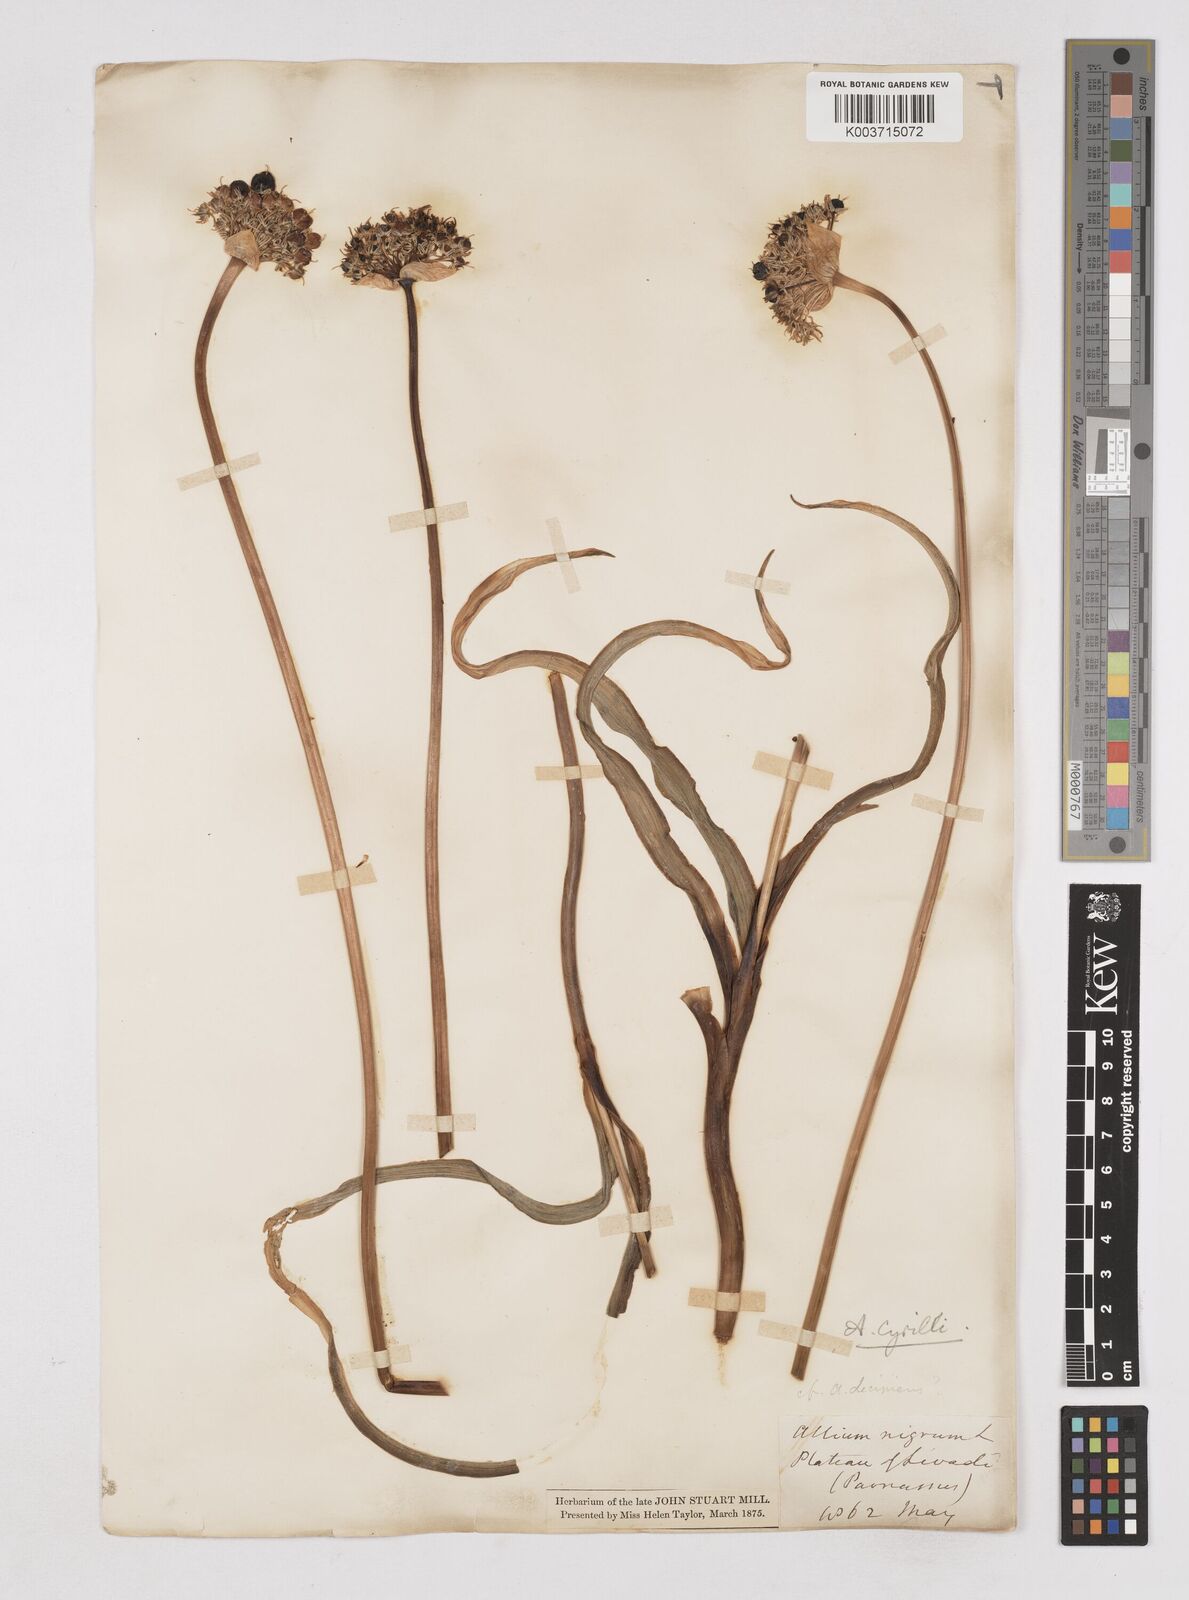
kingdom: Plantae
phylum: Tracheophyta
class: Liliopsida
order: Asparagales
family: Amaryllidaceae
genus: Allium
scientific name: Allium cyrilli
